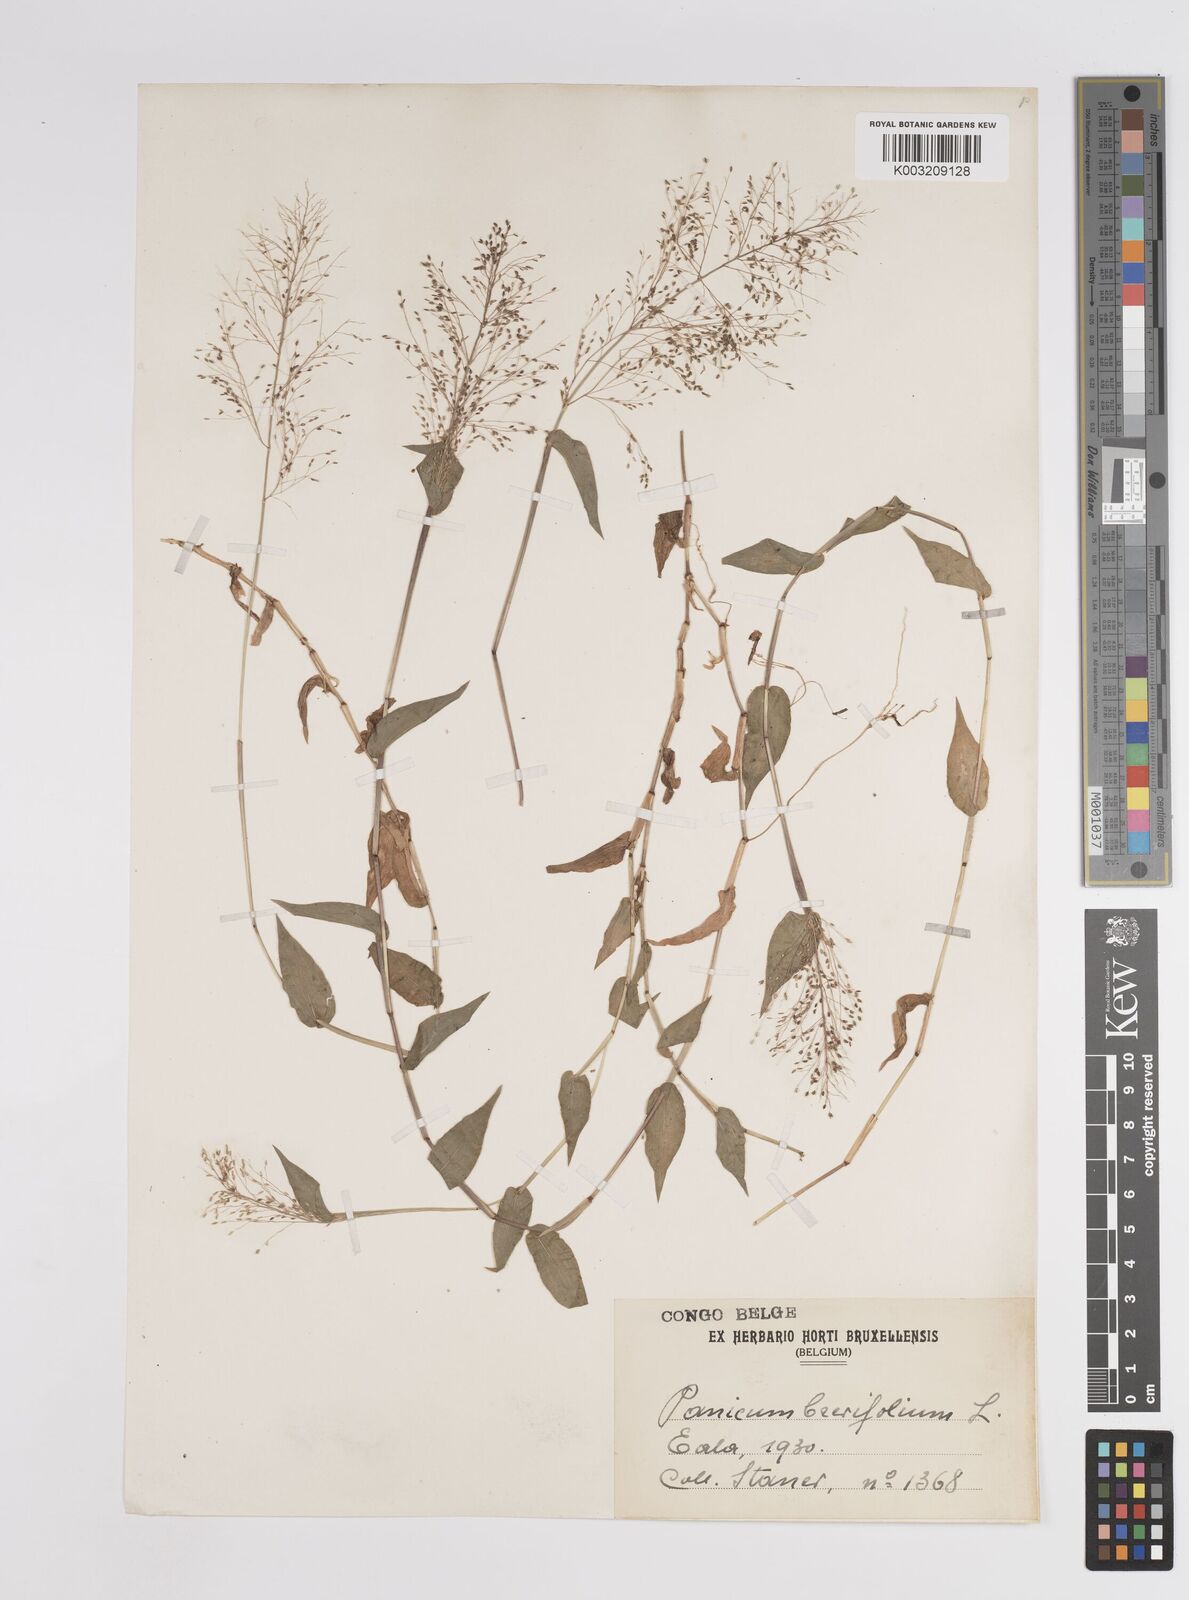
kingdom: Plantae
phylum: Tracheophyta
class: Liliopsida
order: Poales
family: Poaceae
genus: Panicum
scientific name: Panicum brevifolium
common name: Shortleaf panic grass
